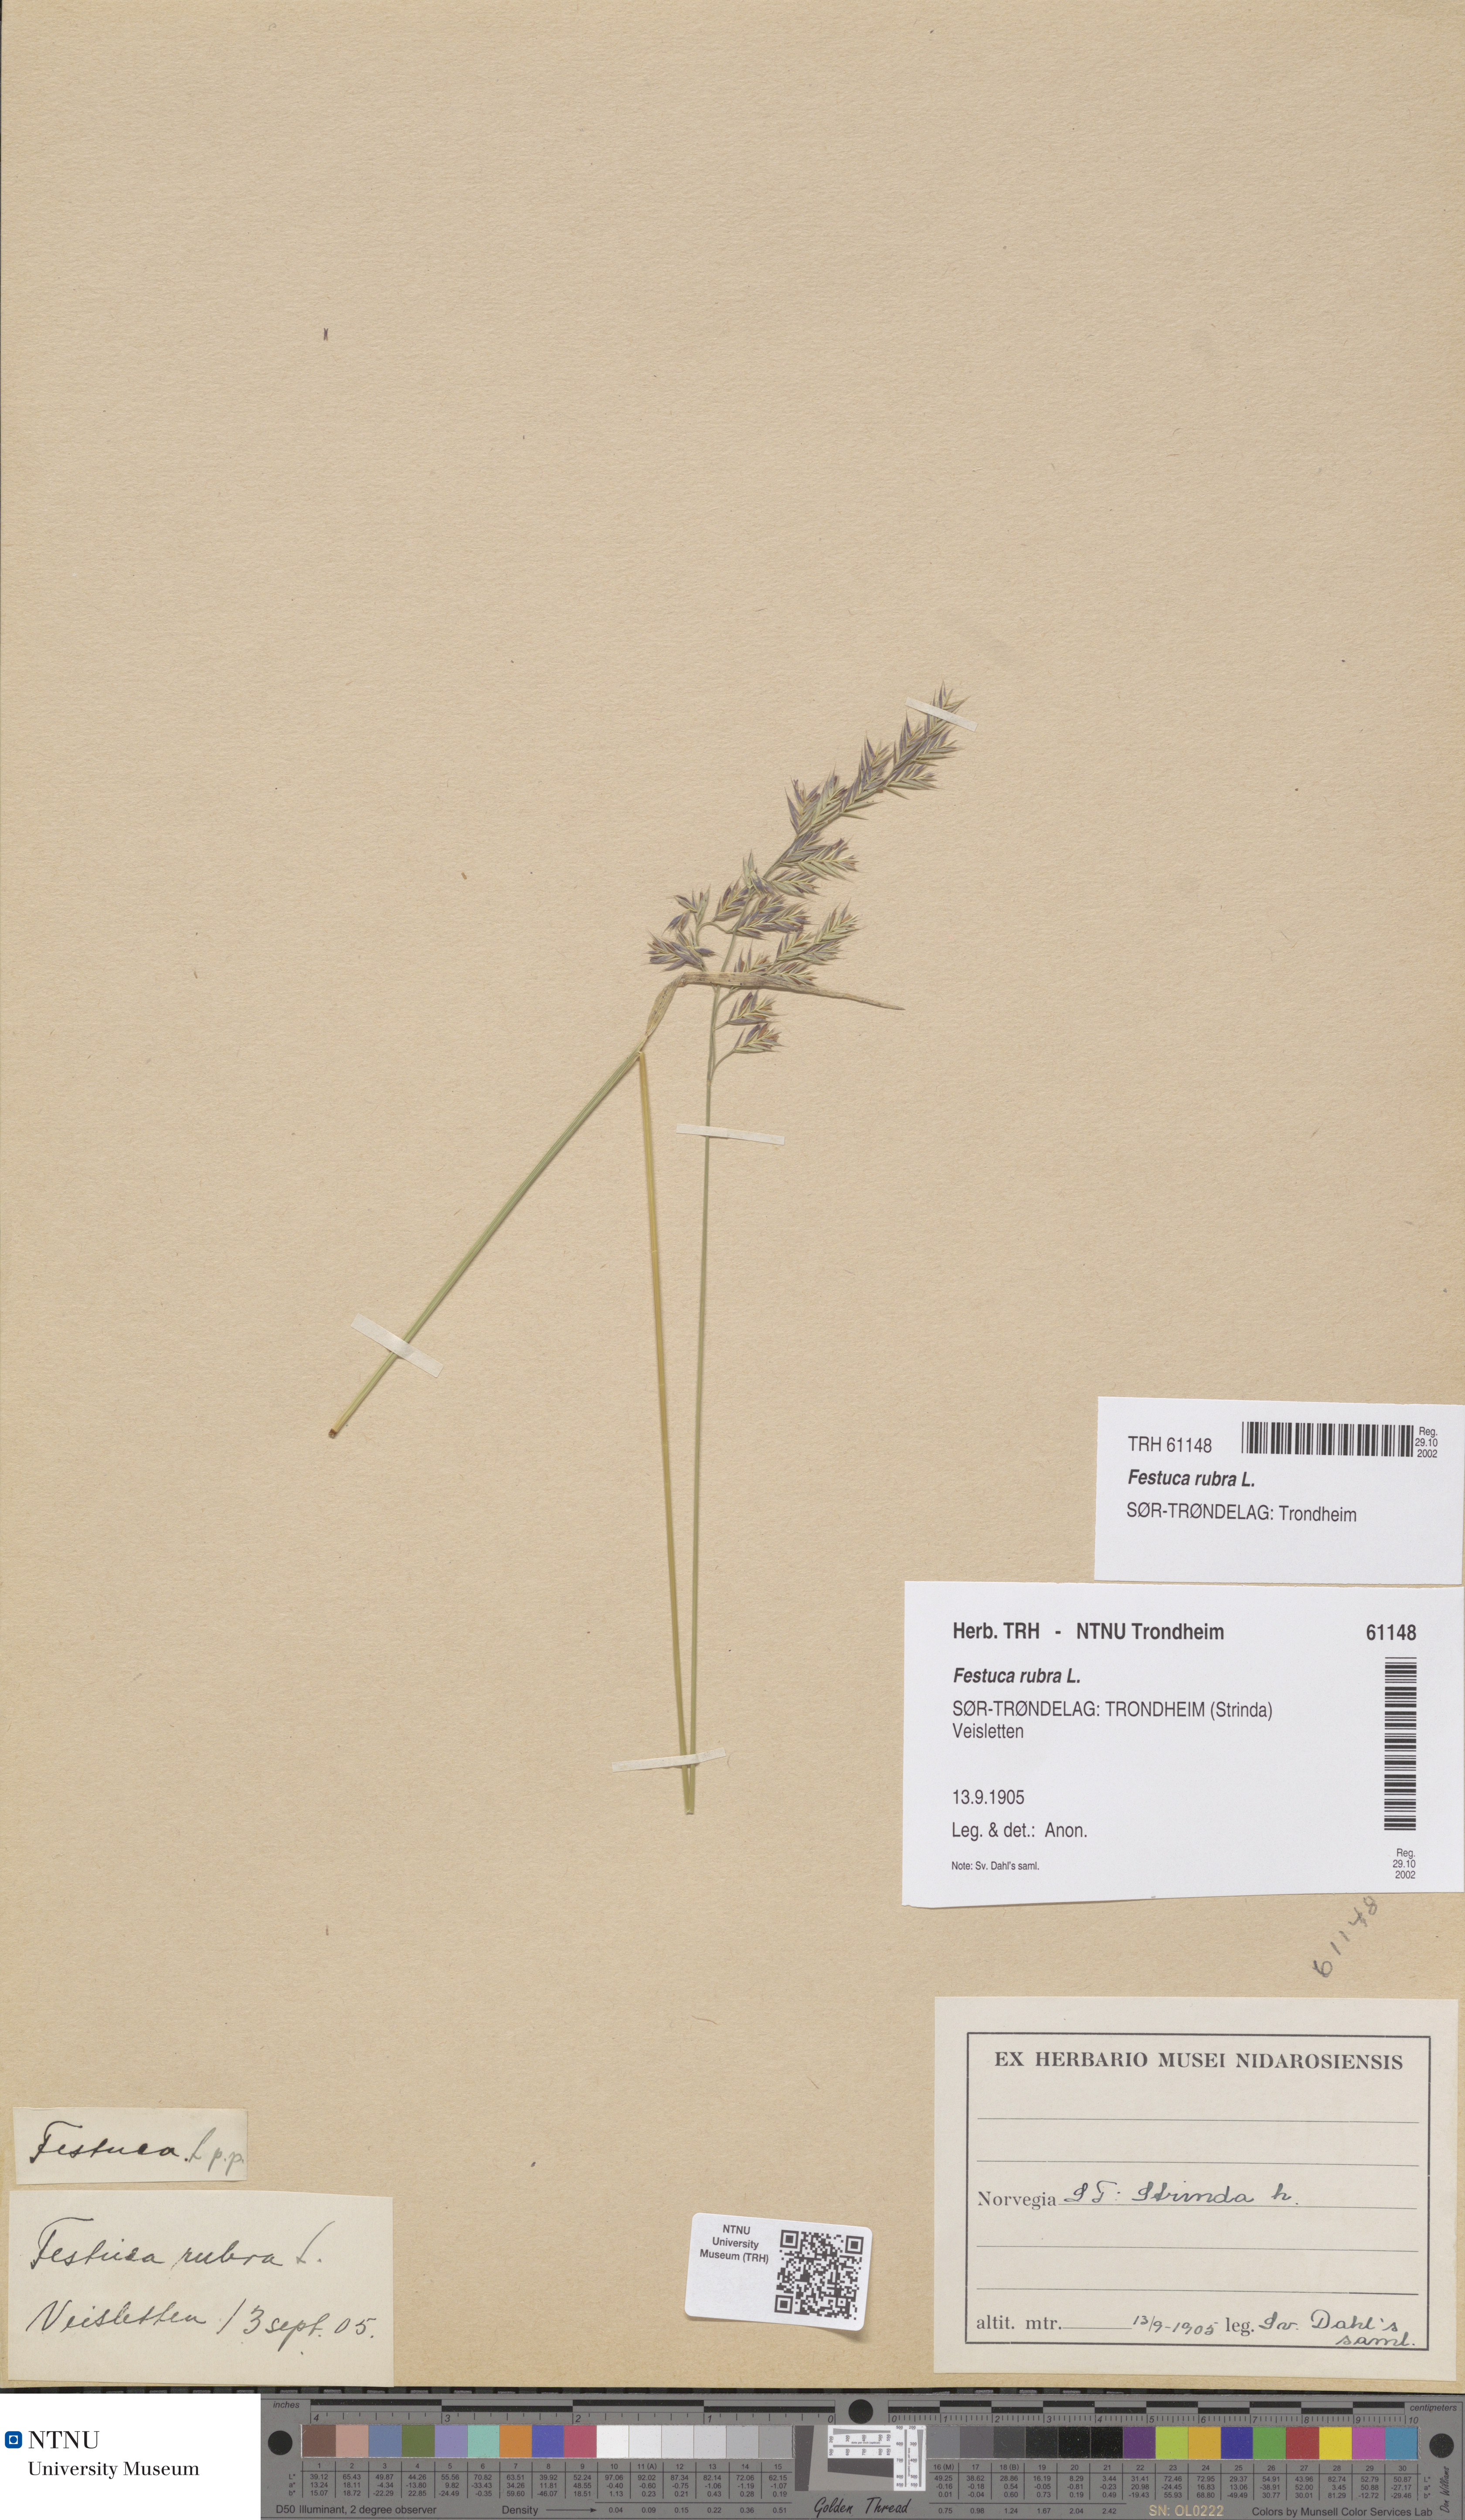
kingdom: Plantae
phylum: Tracheophyta
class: Liliopsida
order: Poales
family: Poaceae
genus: Festuca
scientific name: Festuca rubra
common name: Red fescue
